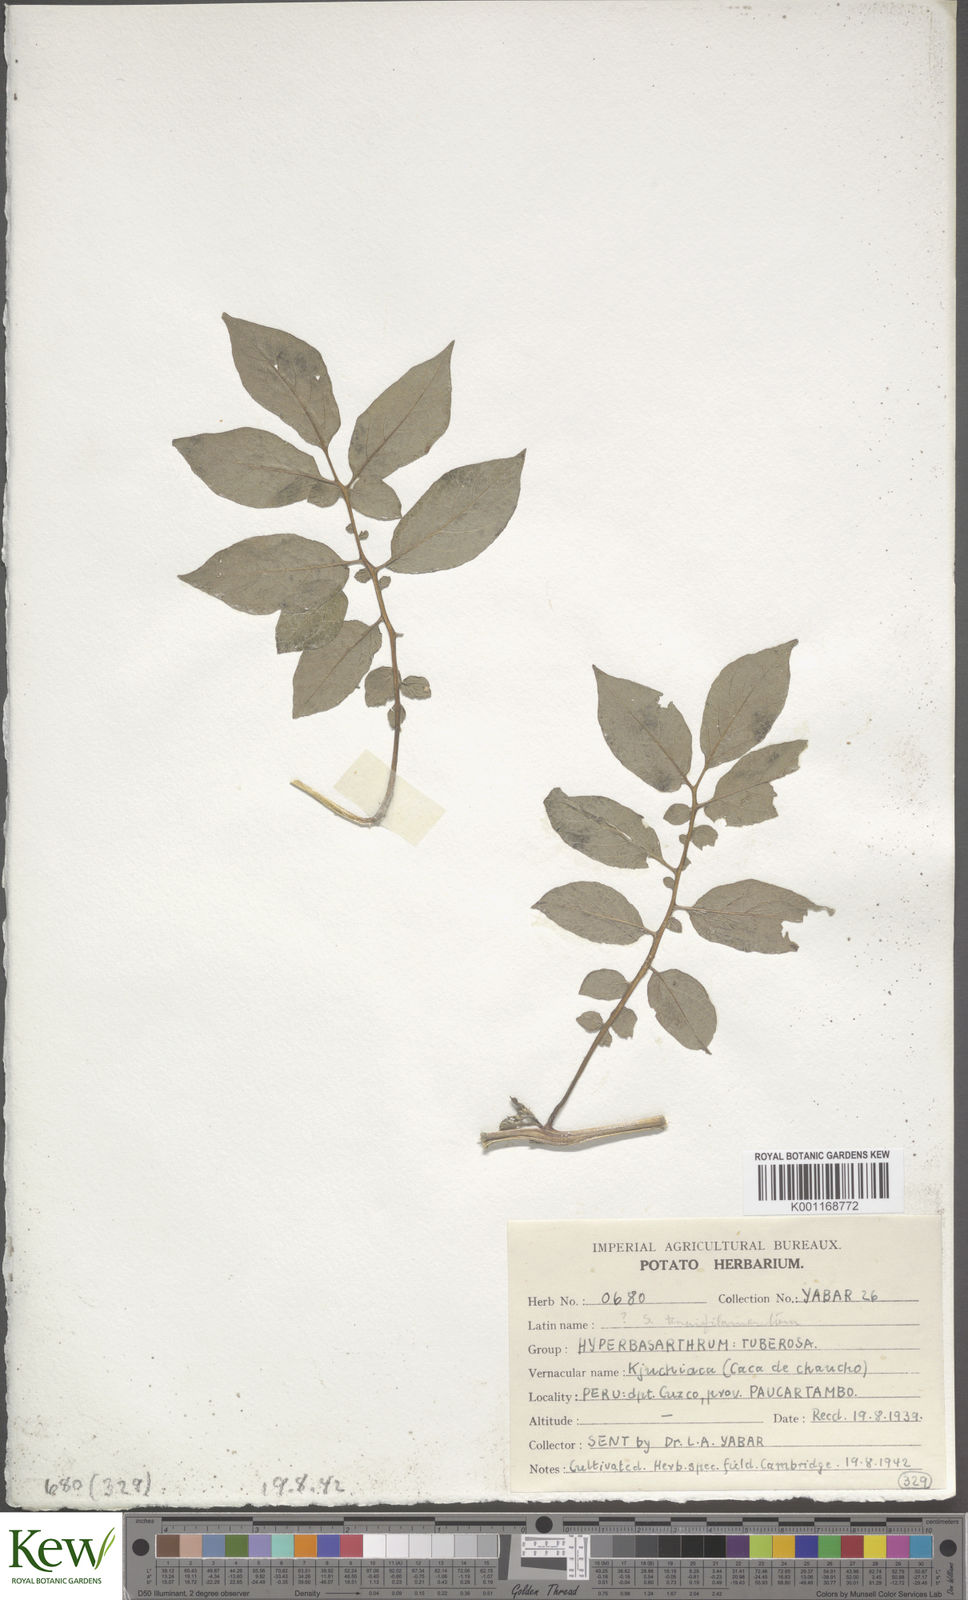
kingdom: Plantae
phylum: Tracheophyta
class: Magnoliopsida
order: Solanales
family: Solanaceae
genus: Solanum
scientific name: Solanum chaucha
